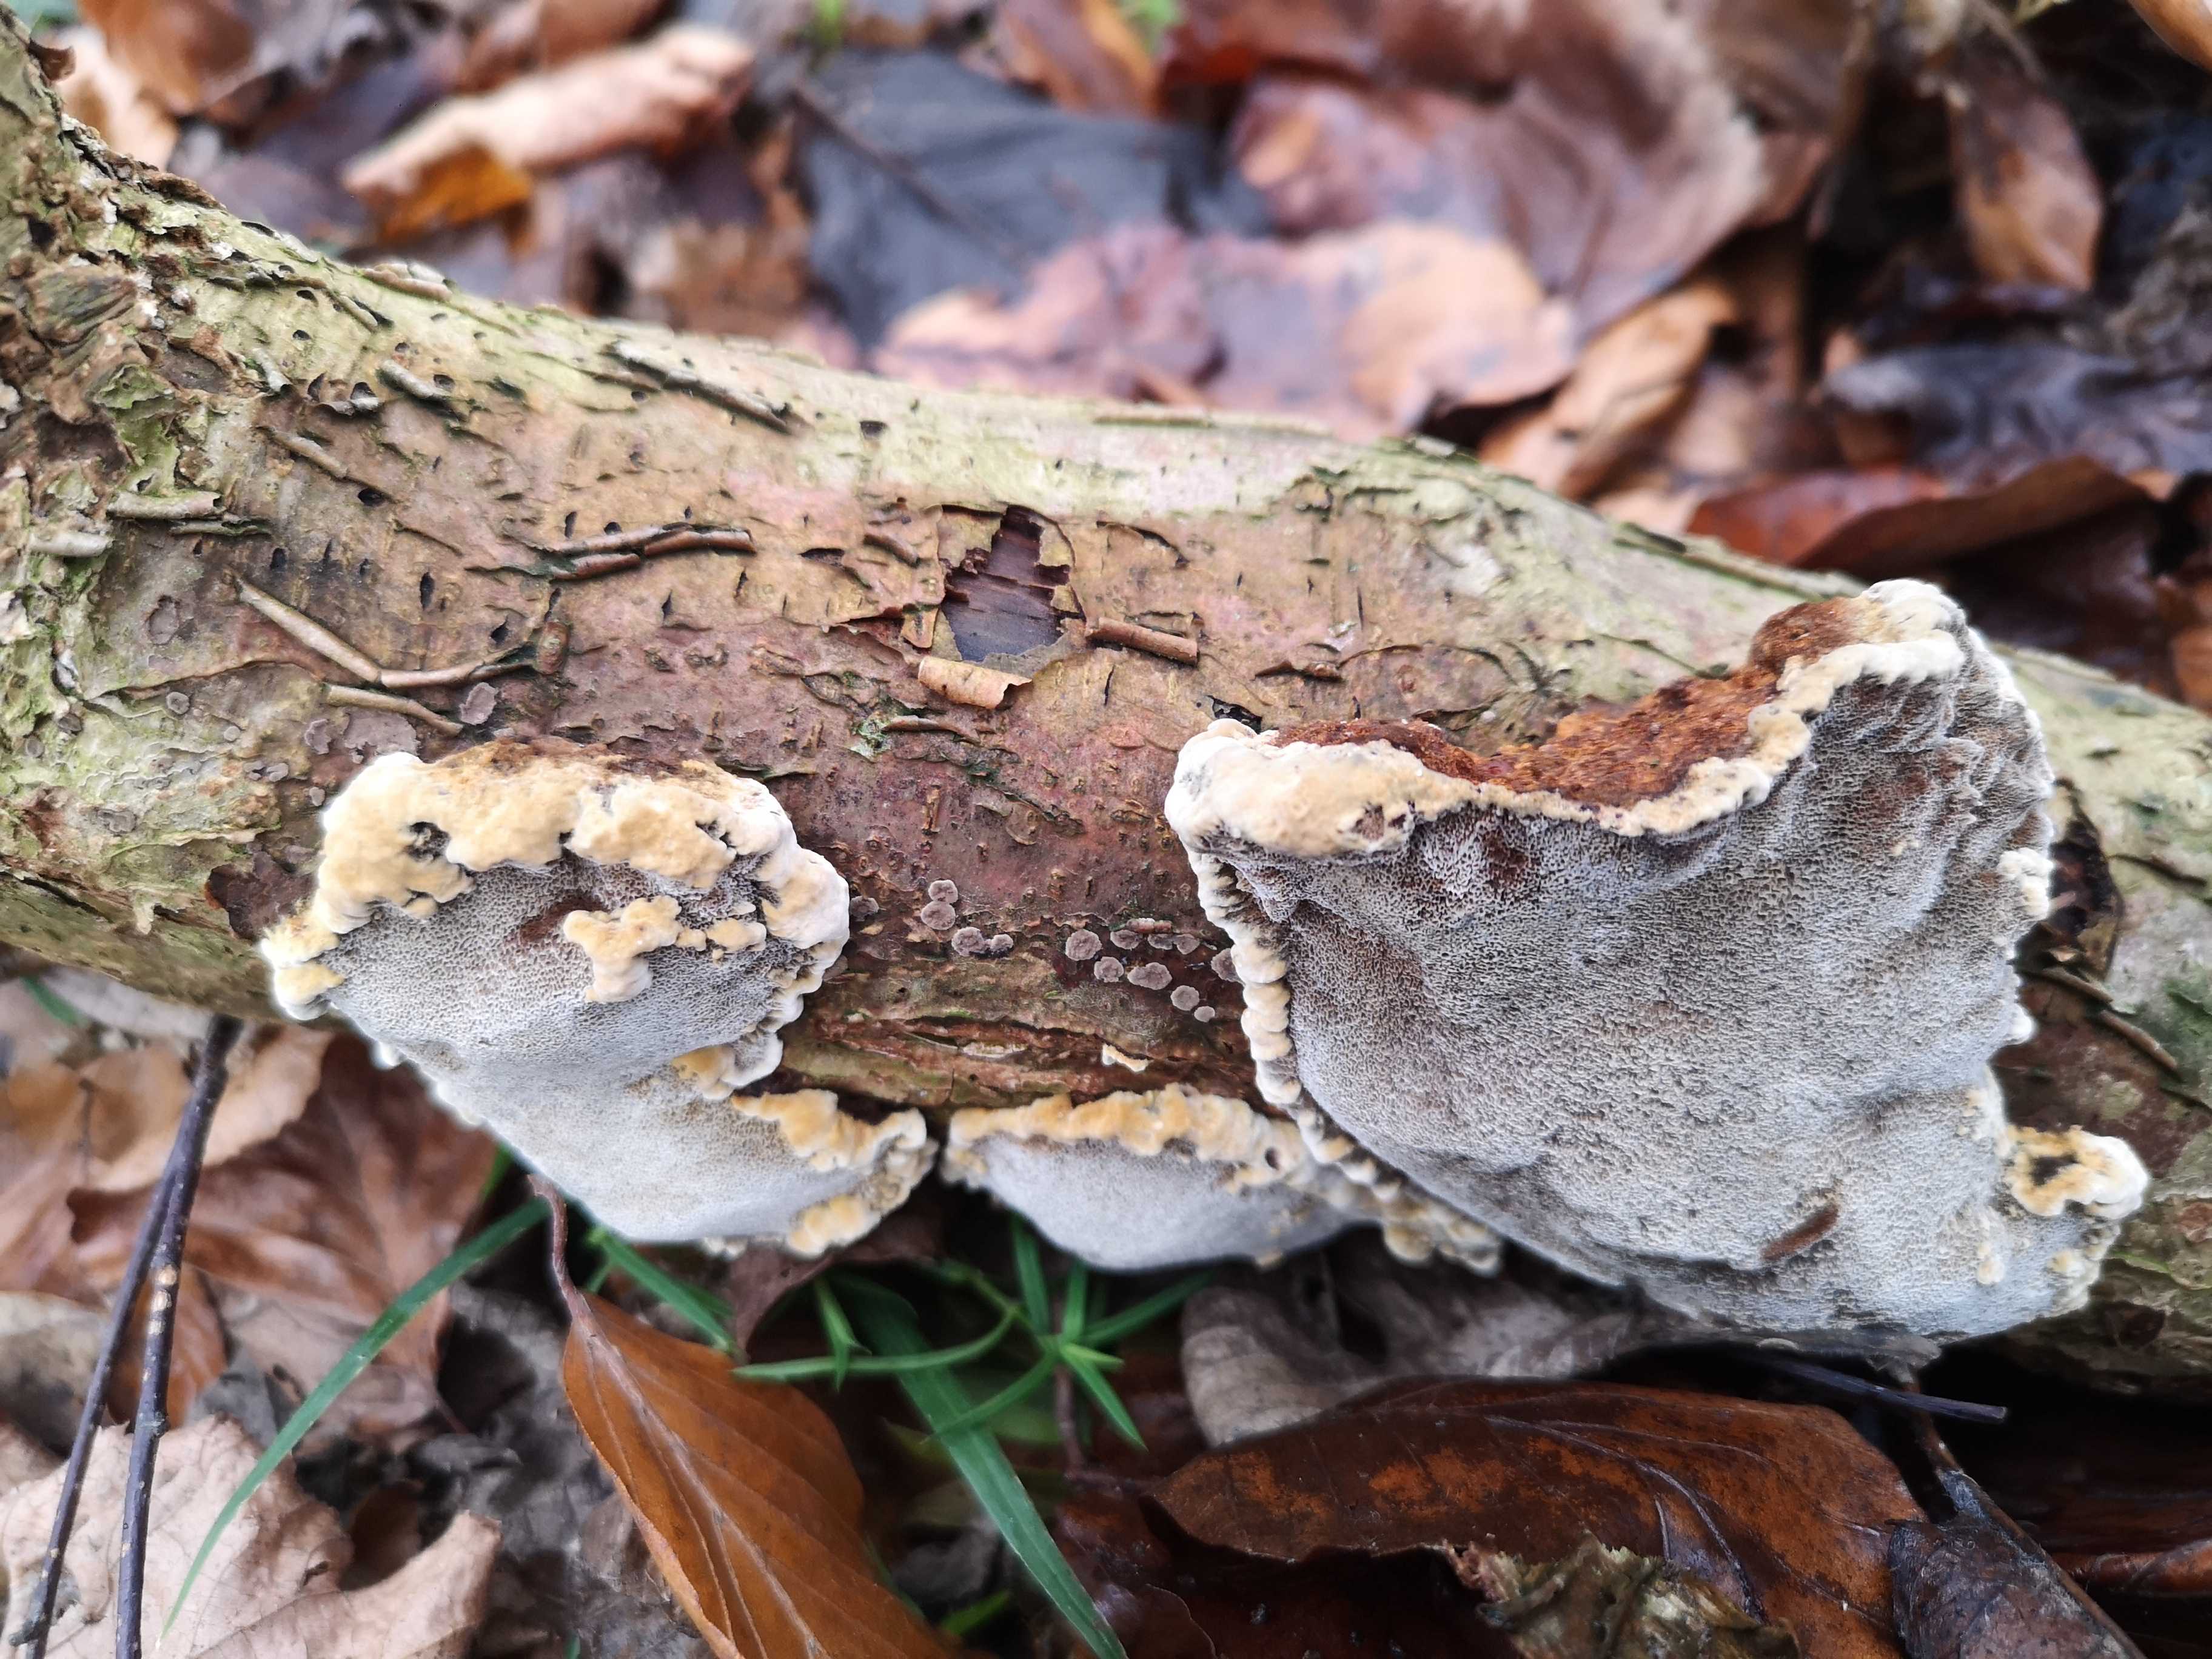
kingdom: Fungi
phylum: Basidiomycota
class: Agaricomycetes
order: Hymenochaetales
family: Hymenochaetaceae
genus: Xanthoporia
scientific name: Xanthoporia radiata
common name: elle-spejlporesvamp
